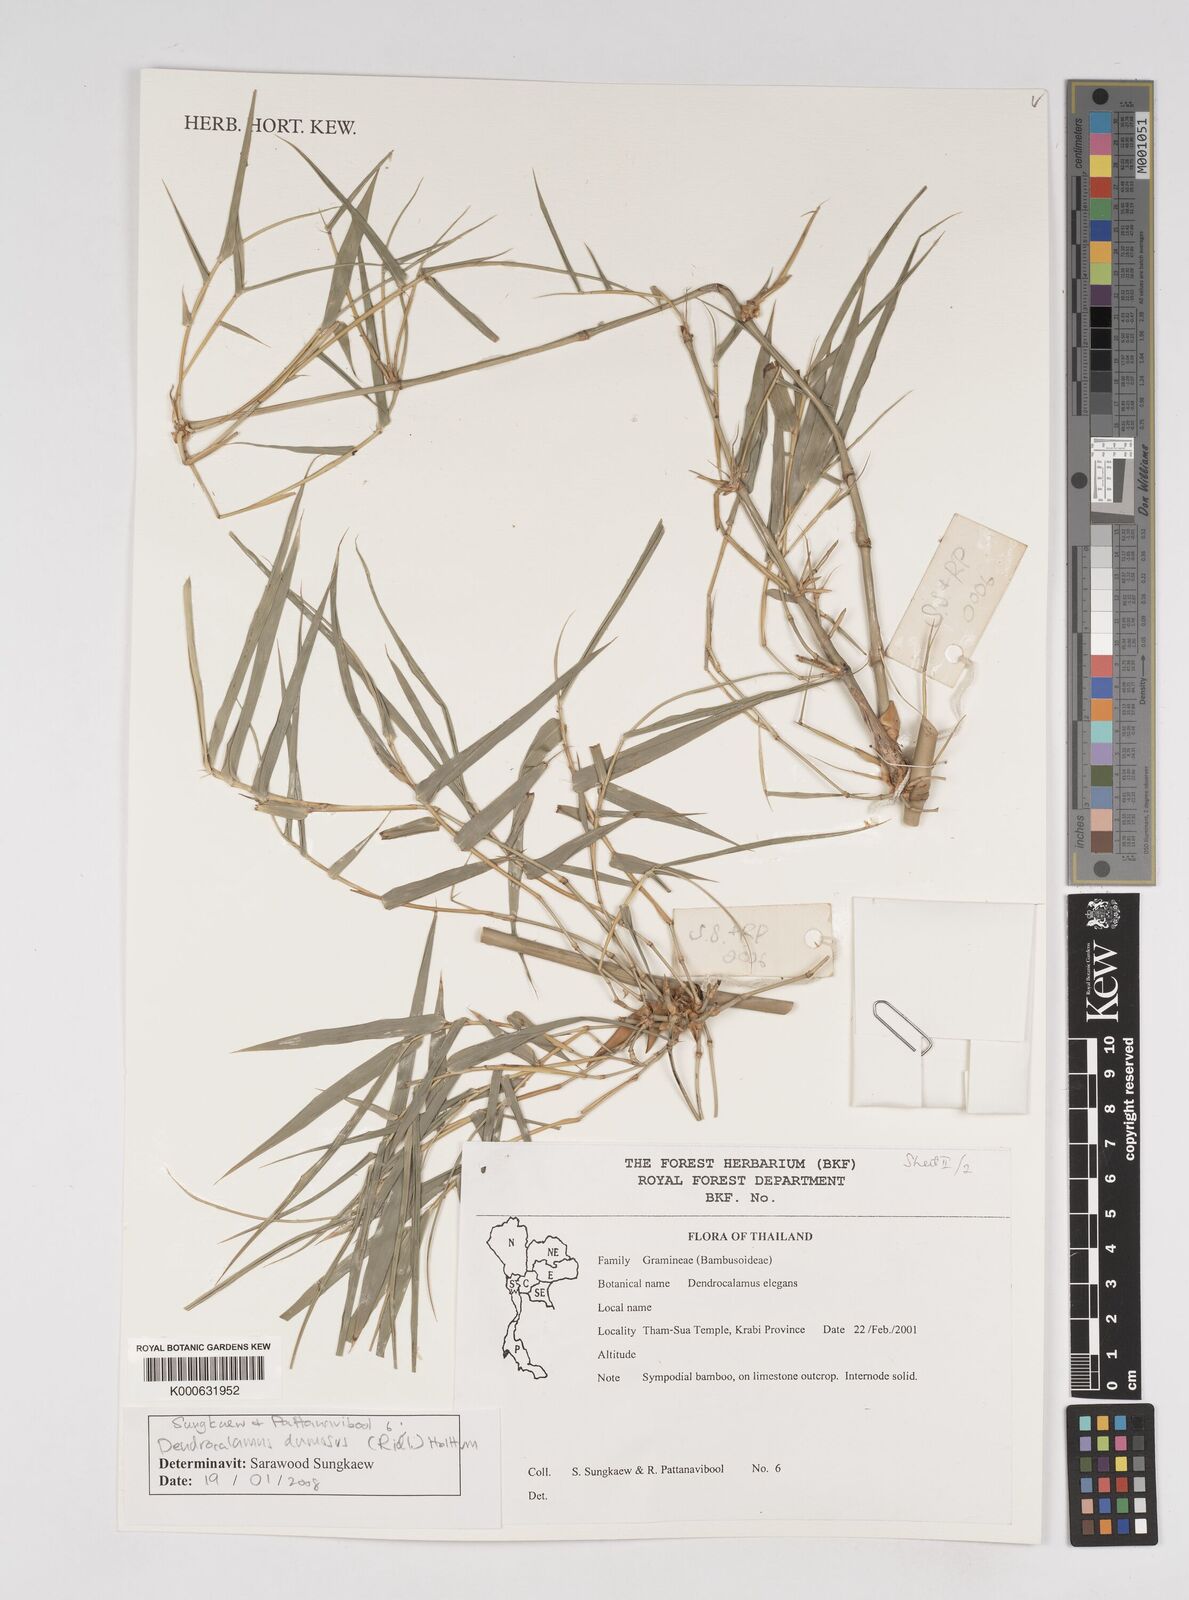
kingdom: Plantae
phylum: Tracheophyta
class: Liliopsida
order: Poales
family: Poaceae
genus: Dendrocalamus
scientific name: Dendrocalamus dumosus
